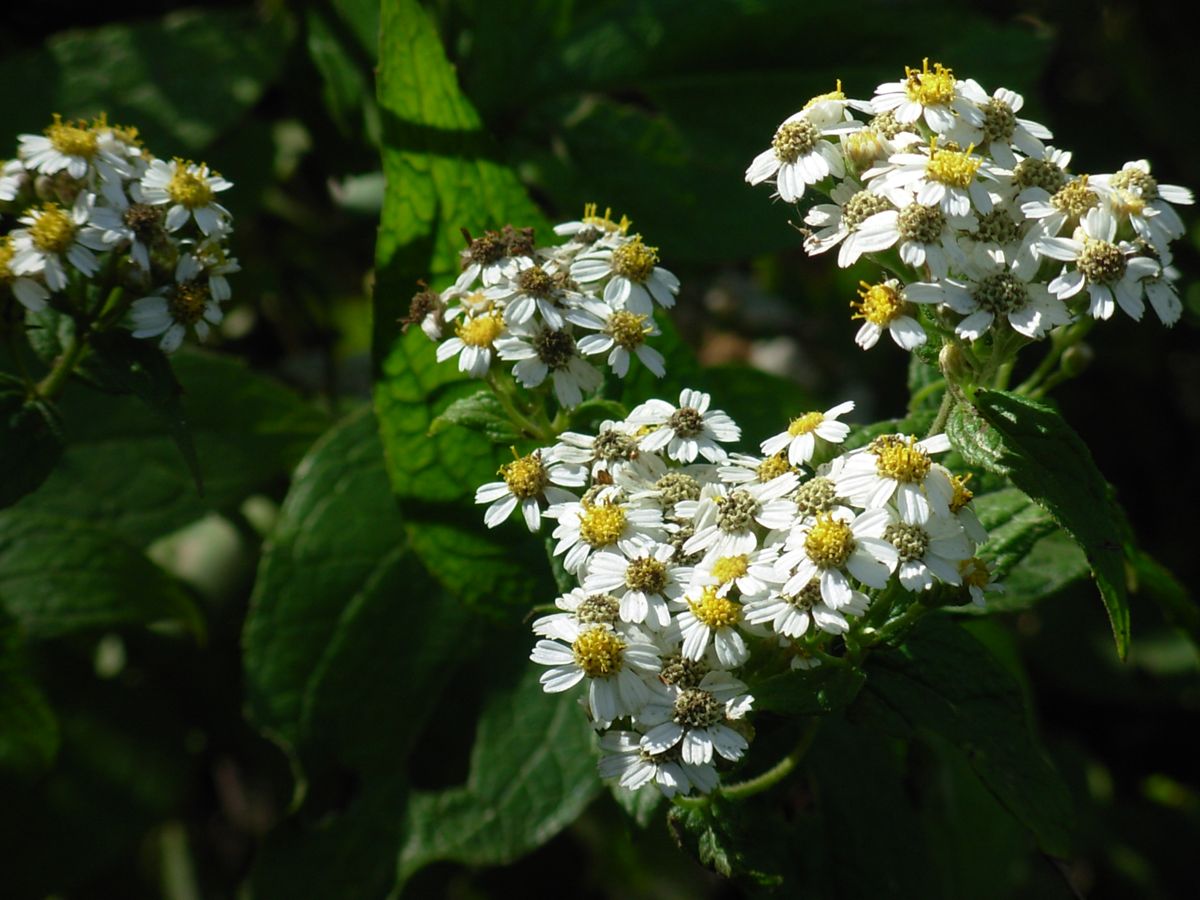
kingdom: Plantae
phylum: Tracheophyta
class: Magnoliopsida
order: Asterales
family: Asteraceae
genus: Alloispermum
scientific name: Alloispermum integrifolium
